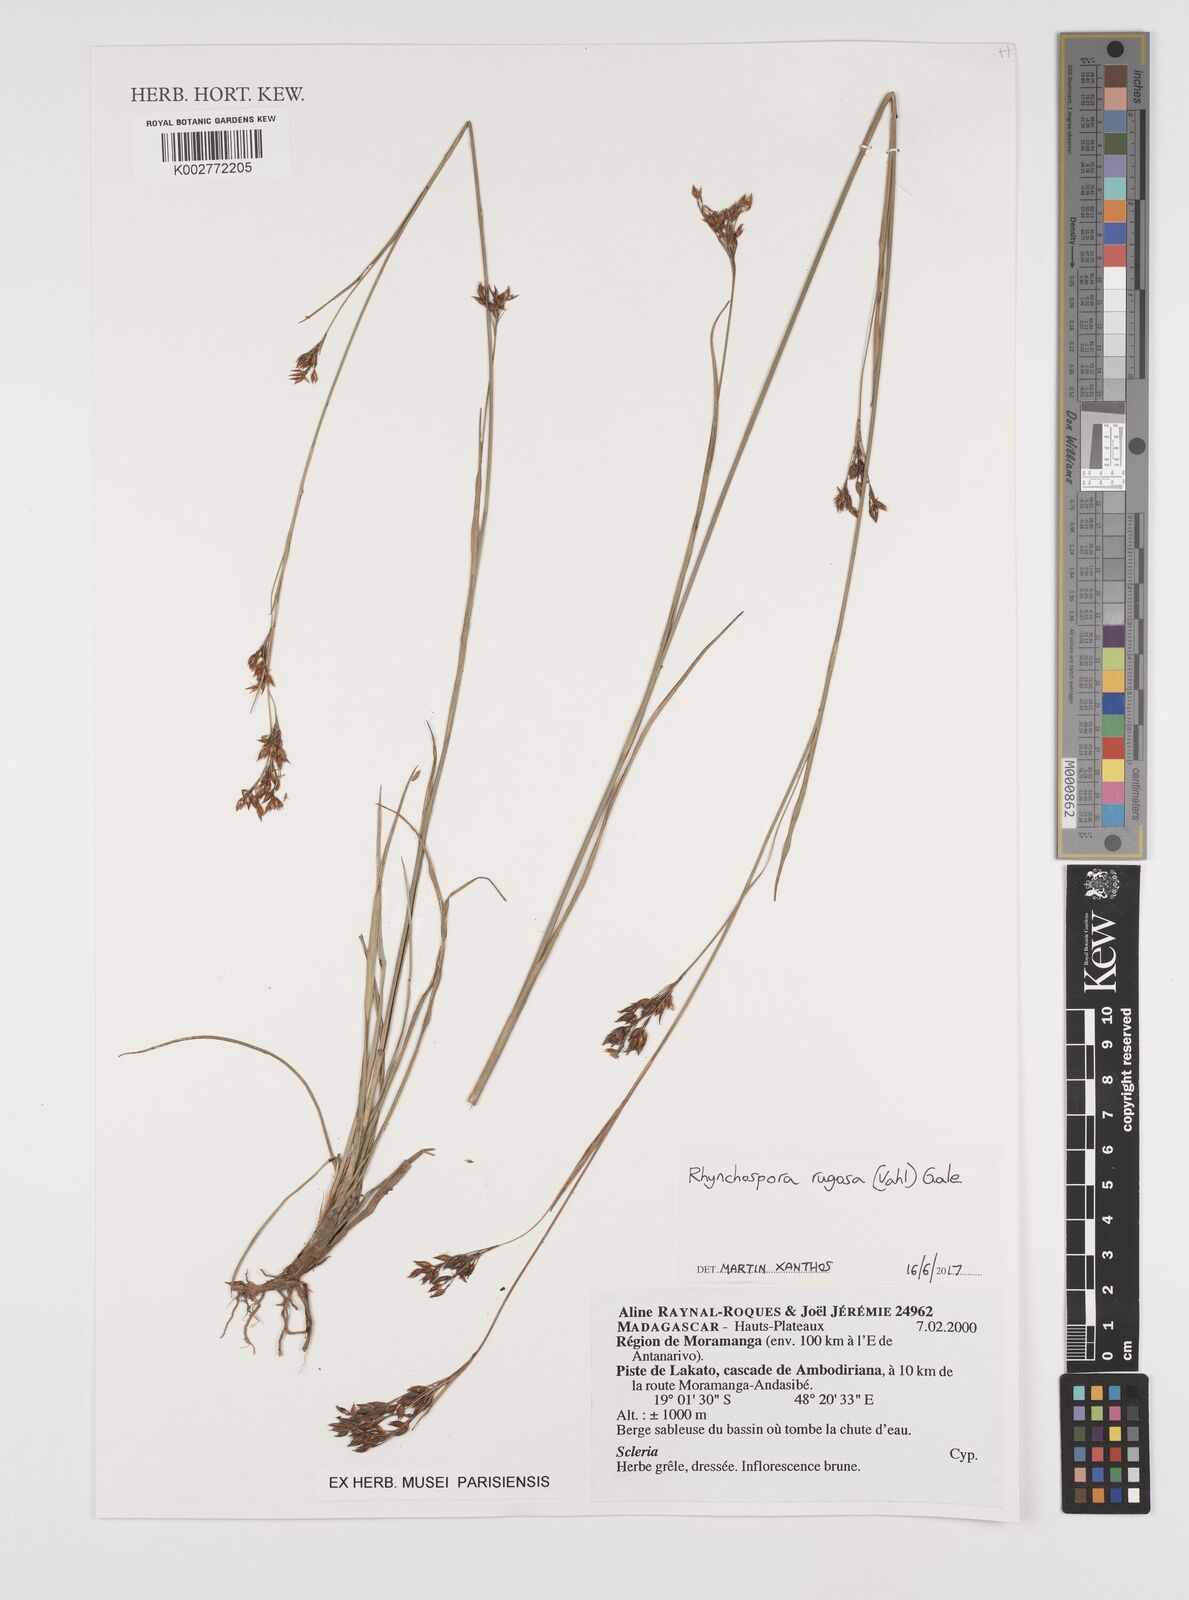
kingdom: Plantae
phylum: Tracheophyta
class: Liliopsida
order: Poales
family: Cyperaceae
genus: Rhynchospora
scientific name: Rhynchospora rugosa
